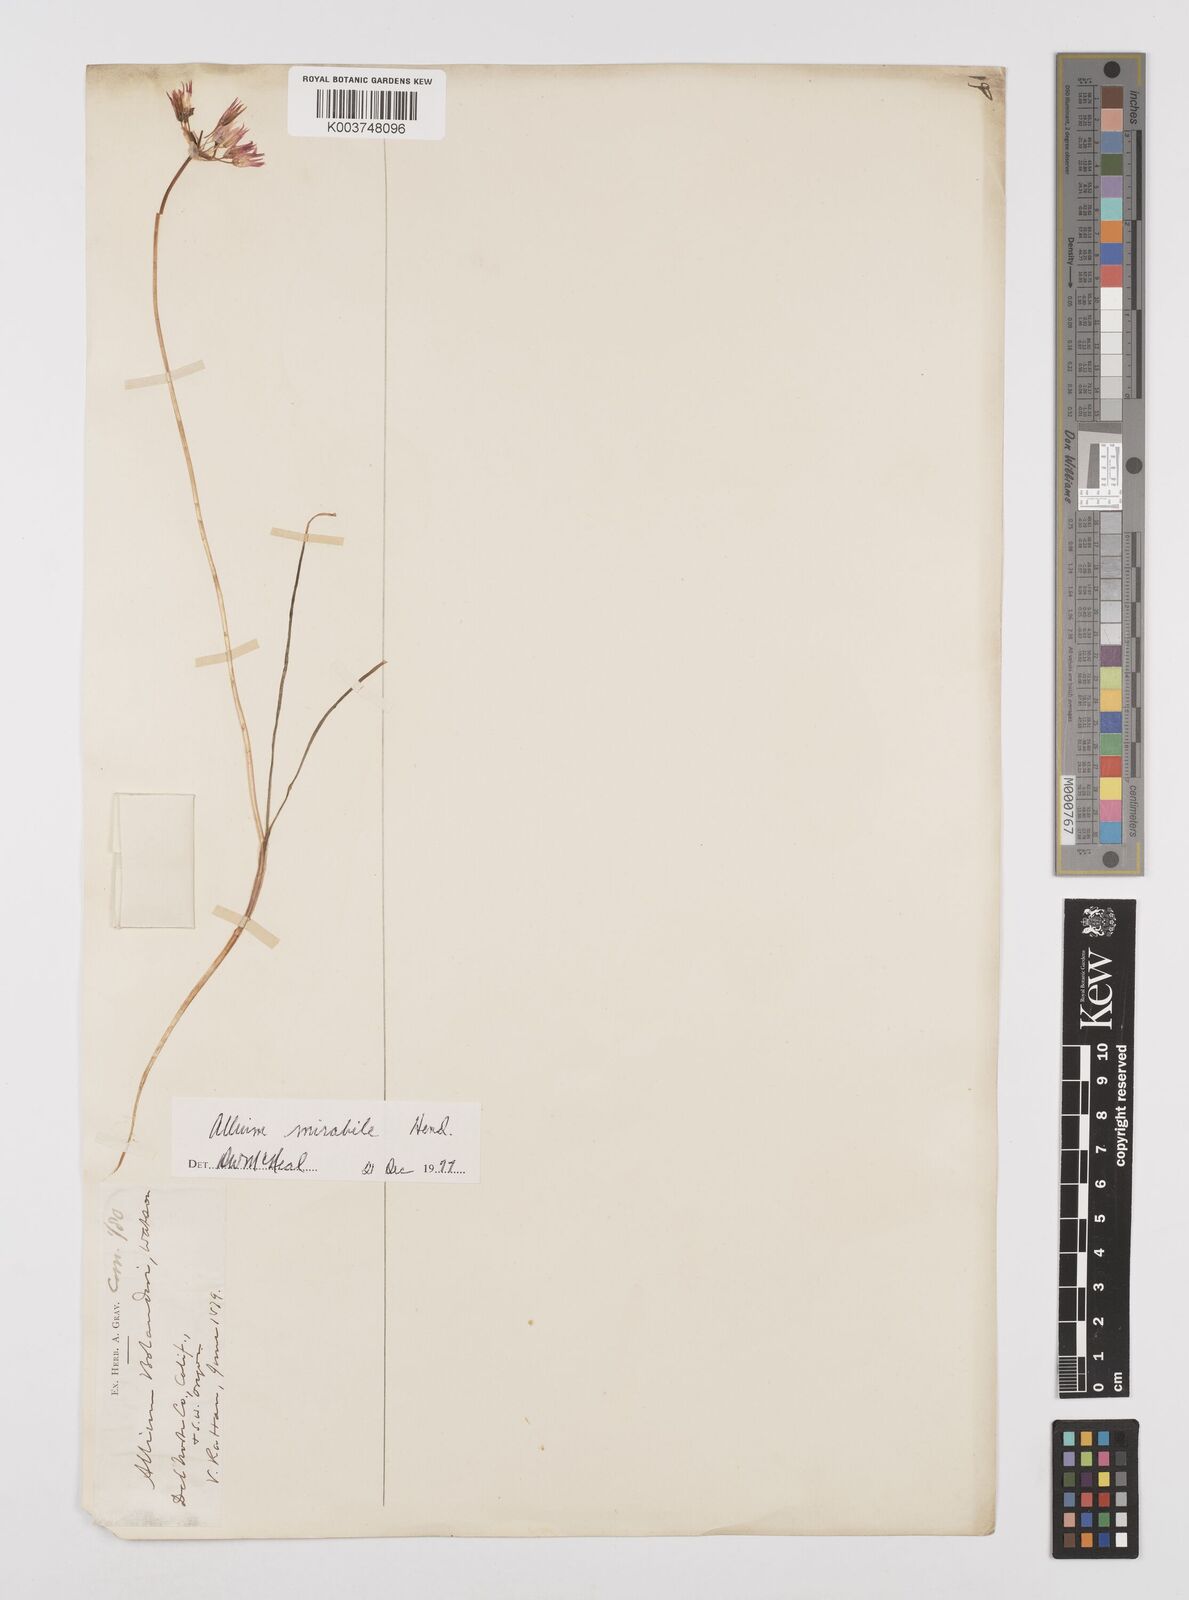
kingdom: Plantae
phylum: Tracheophyta
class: Liliopsida
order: Asparagales
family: Amaryllidaceae
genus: Allium
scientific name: Allium bolanderi
